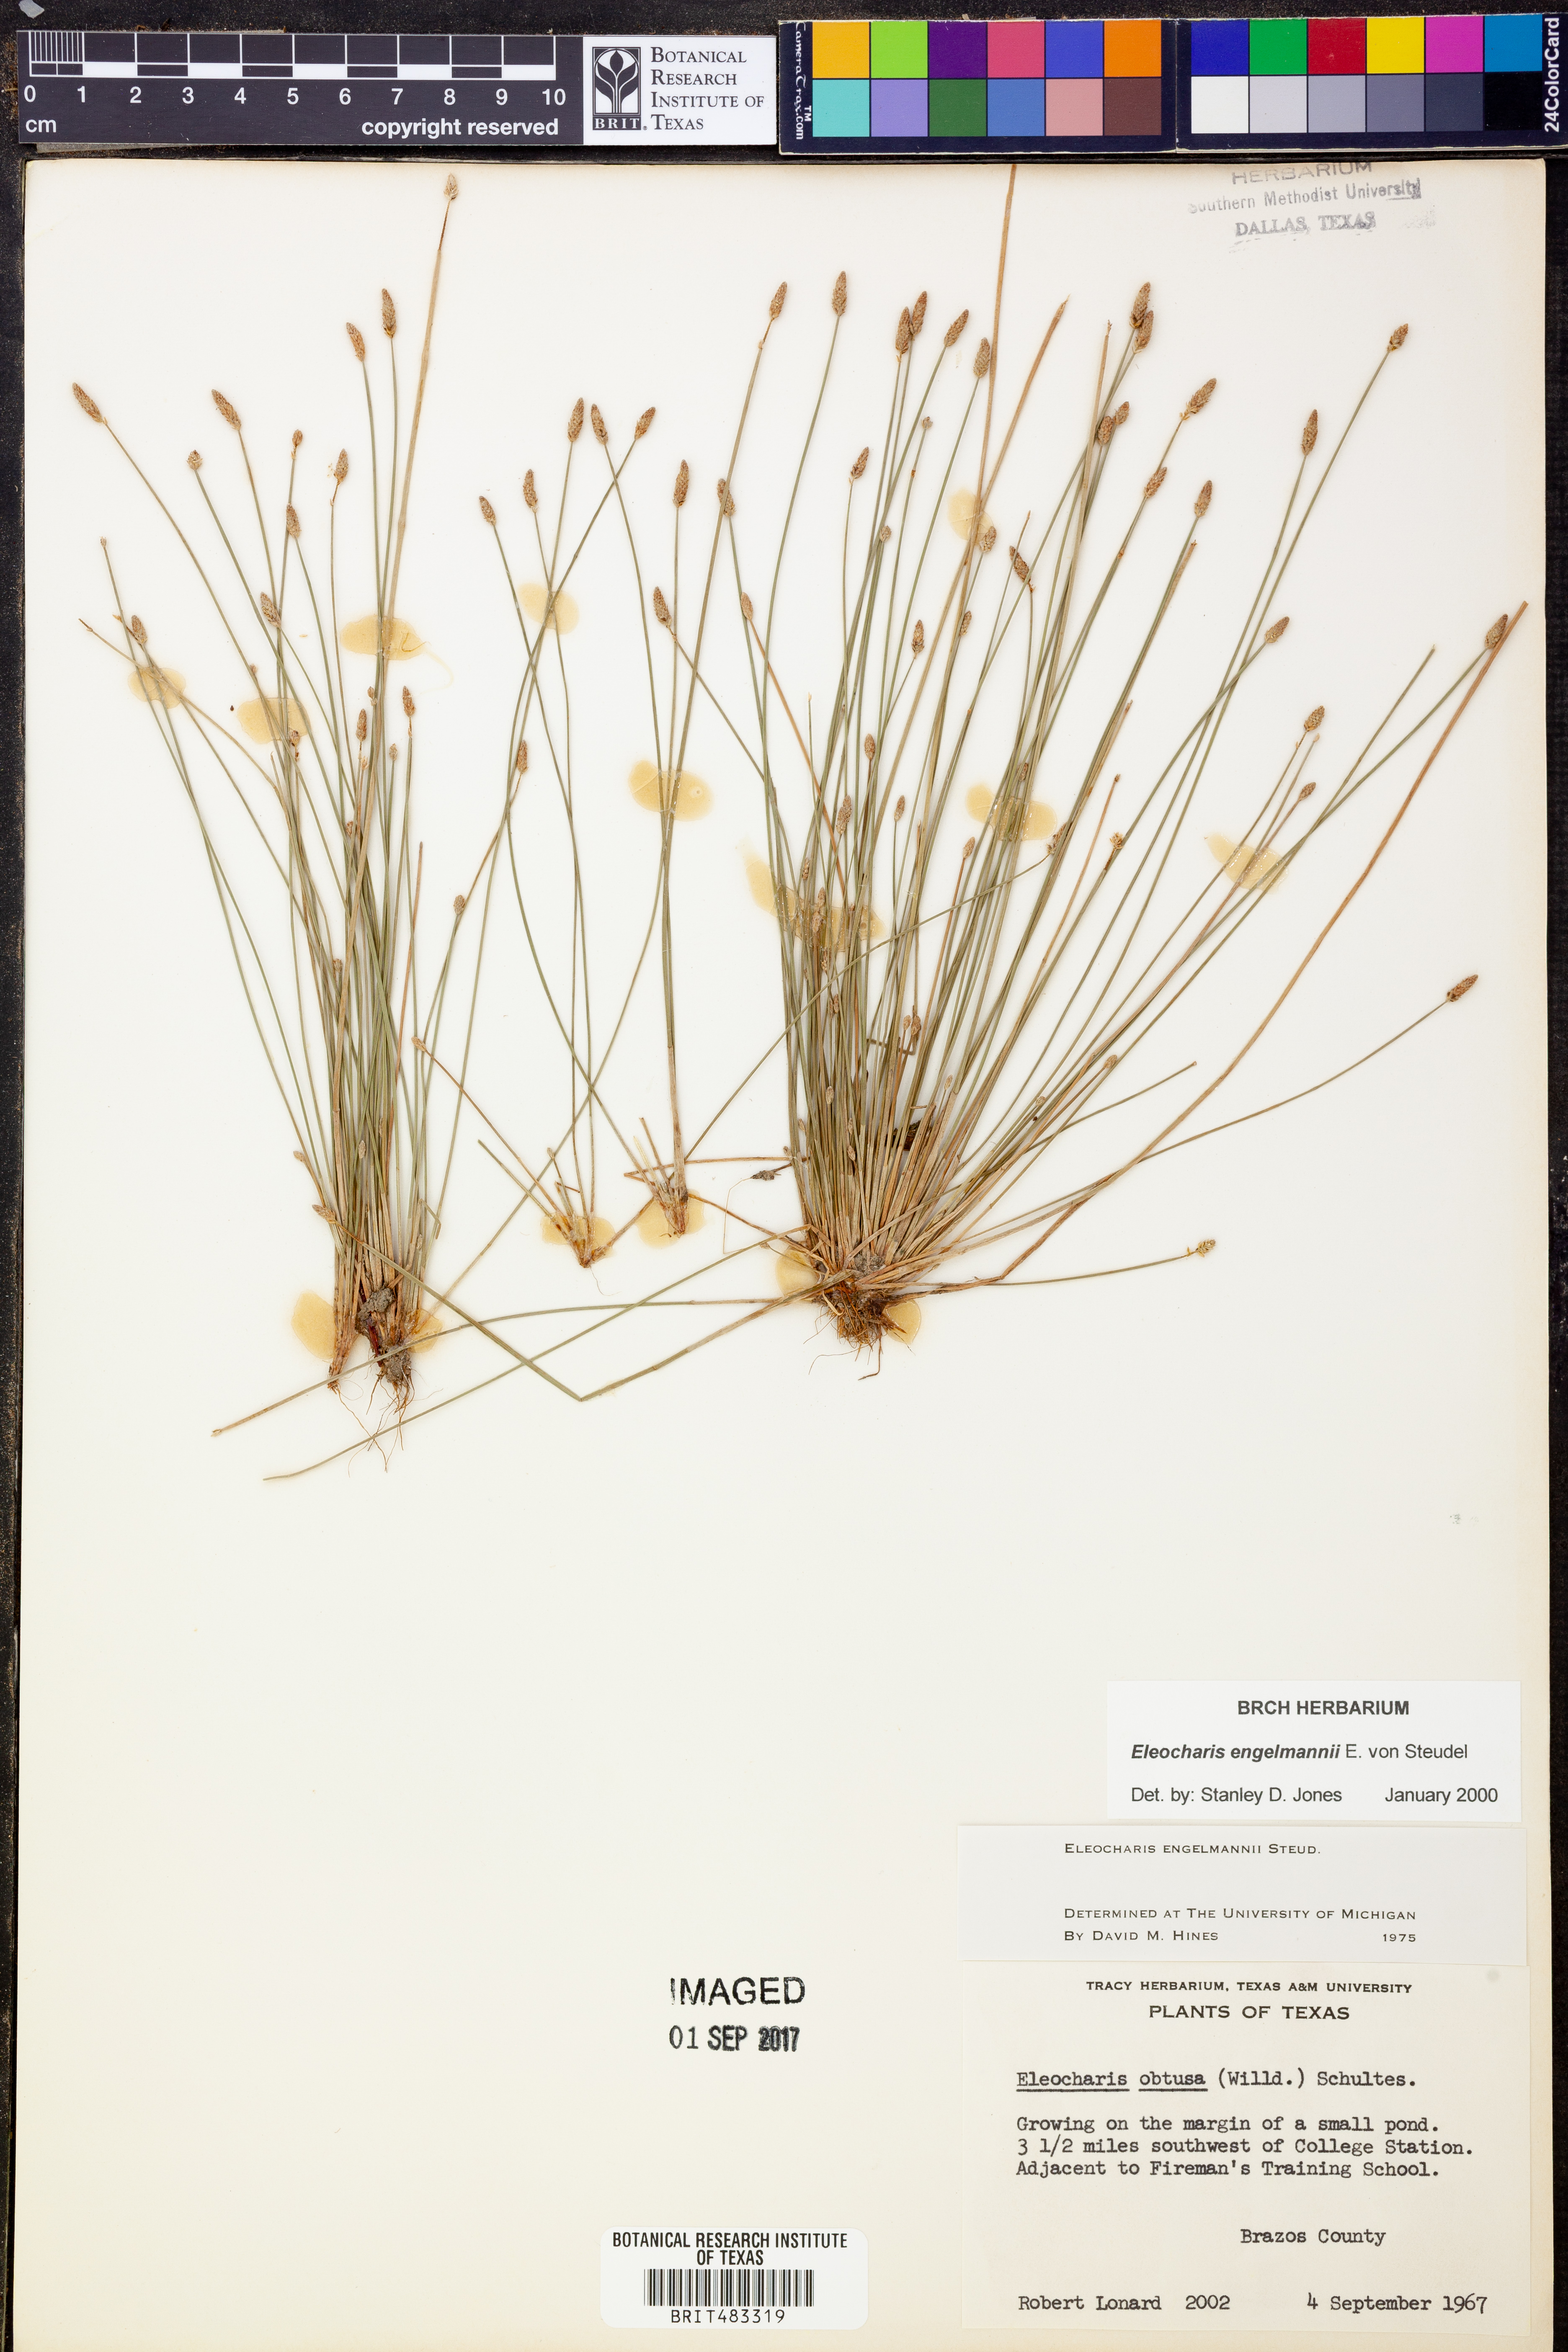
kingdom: Plantae
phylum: Tracheophyta
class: Liliopsida
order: Poales
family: Cyperaceae
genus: Eleocharis
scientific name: Eleocharis engelmannii
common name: Engelmann's spikerush
